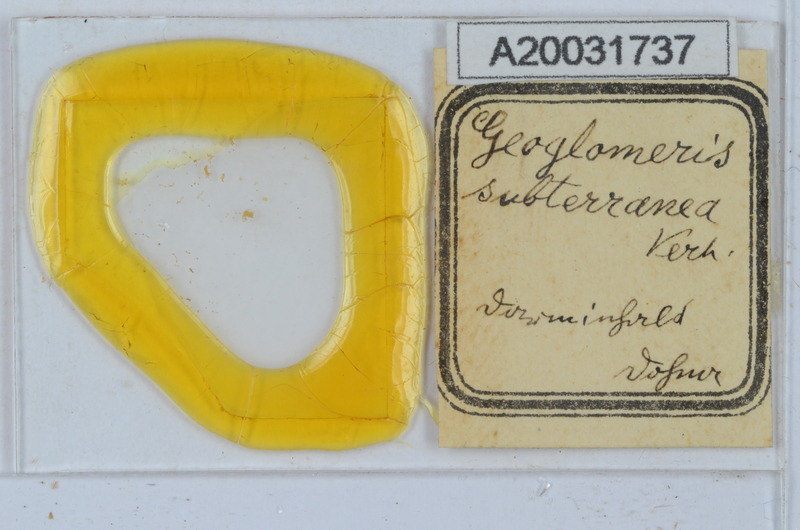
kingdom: Animalia
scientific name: Animalia
